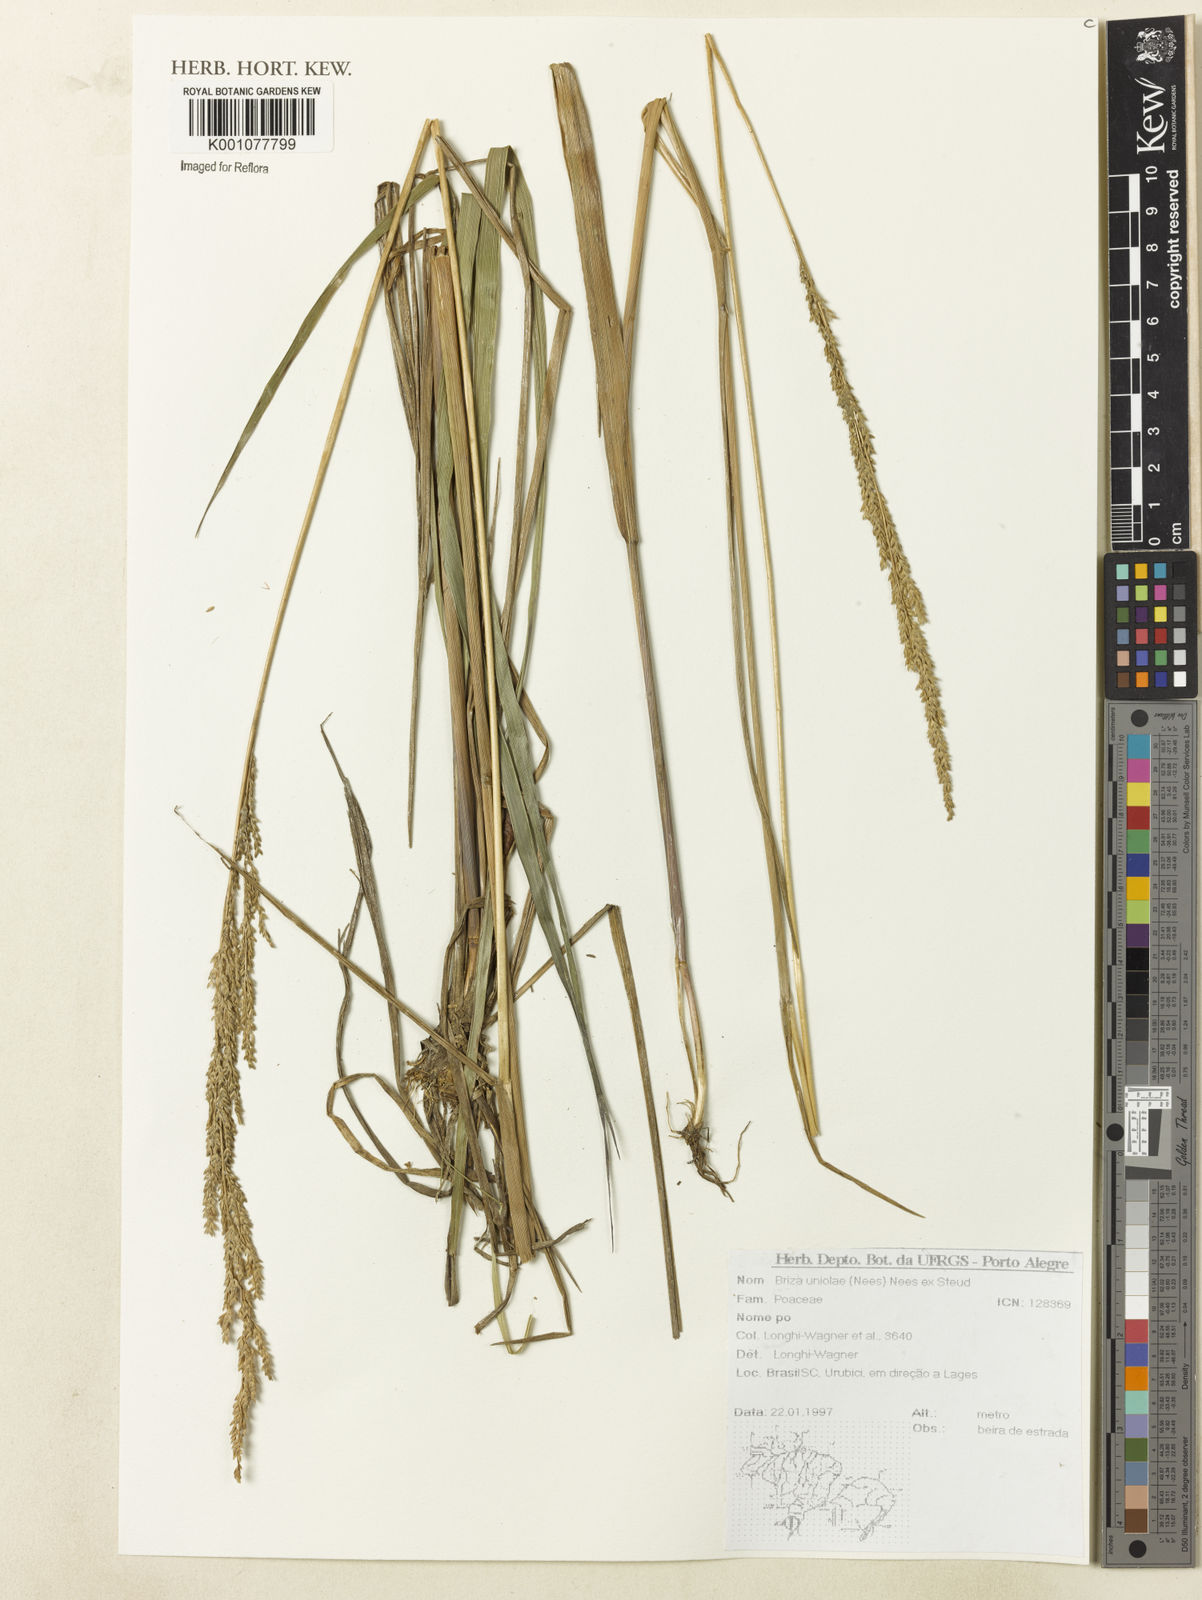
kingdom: Plantae
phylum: Tracheophyta
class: Liliopsida
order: Poales
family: Poaceae
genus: Poidium
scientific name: Poidium uniolae
